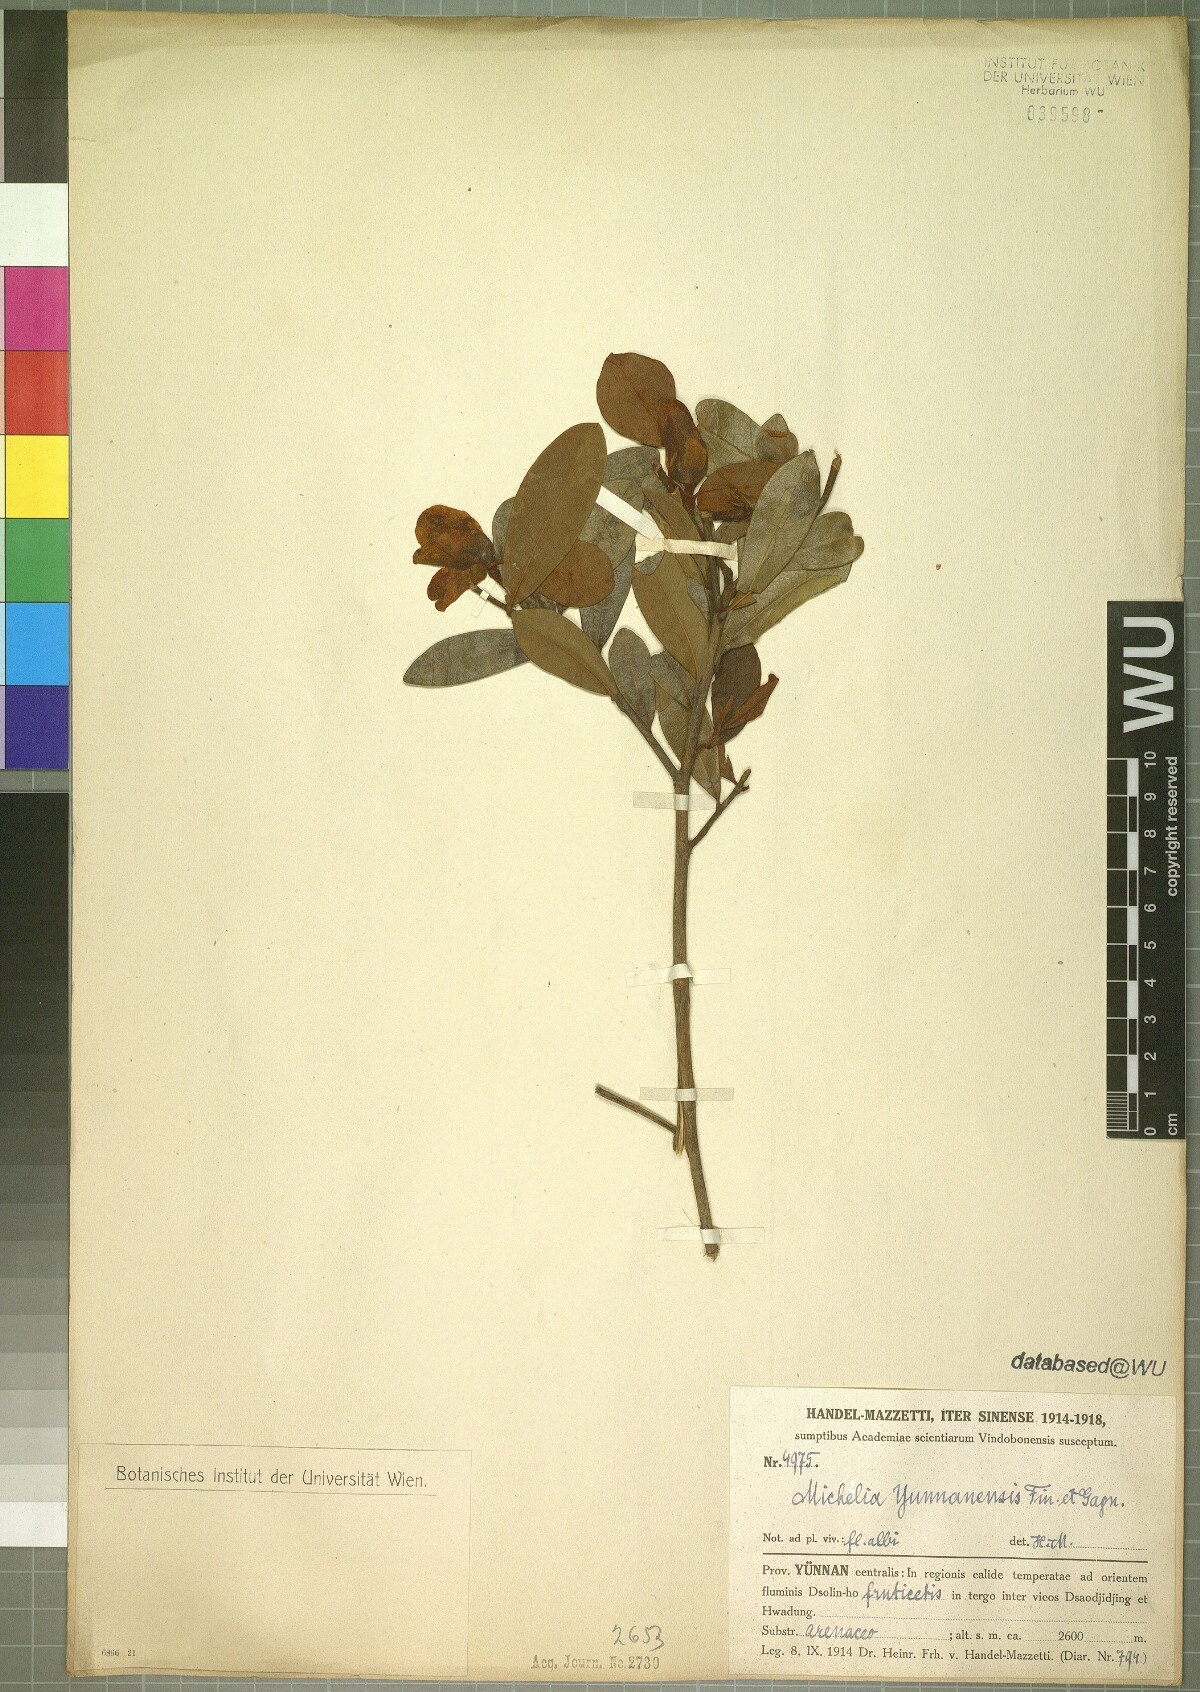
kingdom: Plantae
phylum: Tracheophyta
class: Magnoliopsida
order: Magnoliales
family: Magnoliaceae
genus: Magnolia
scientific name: Magnolia laevifolia
